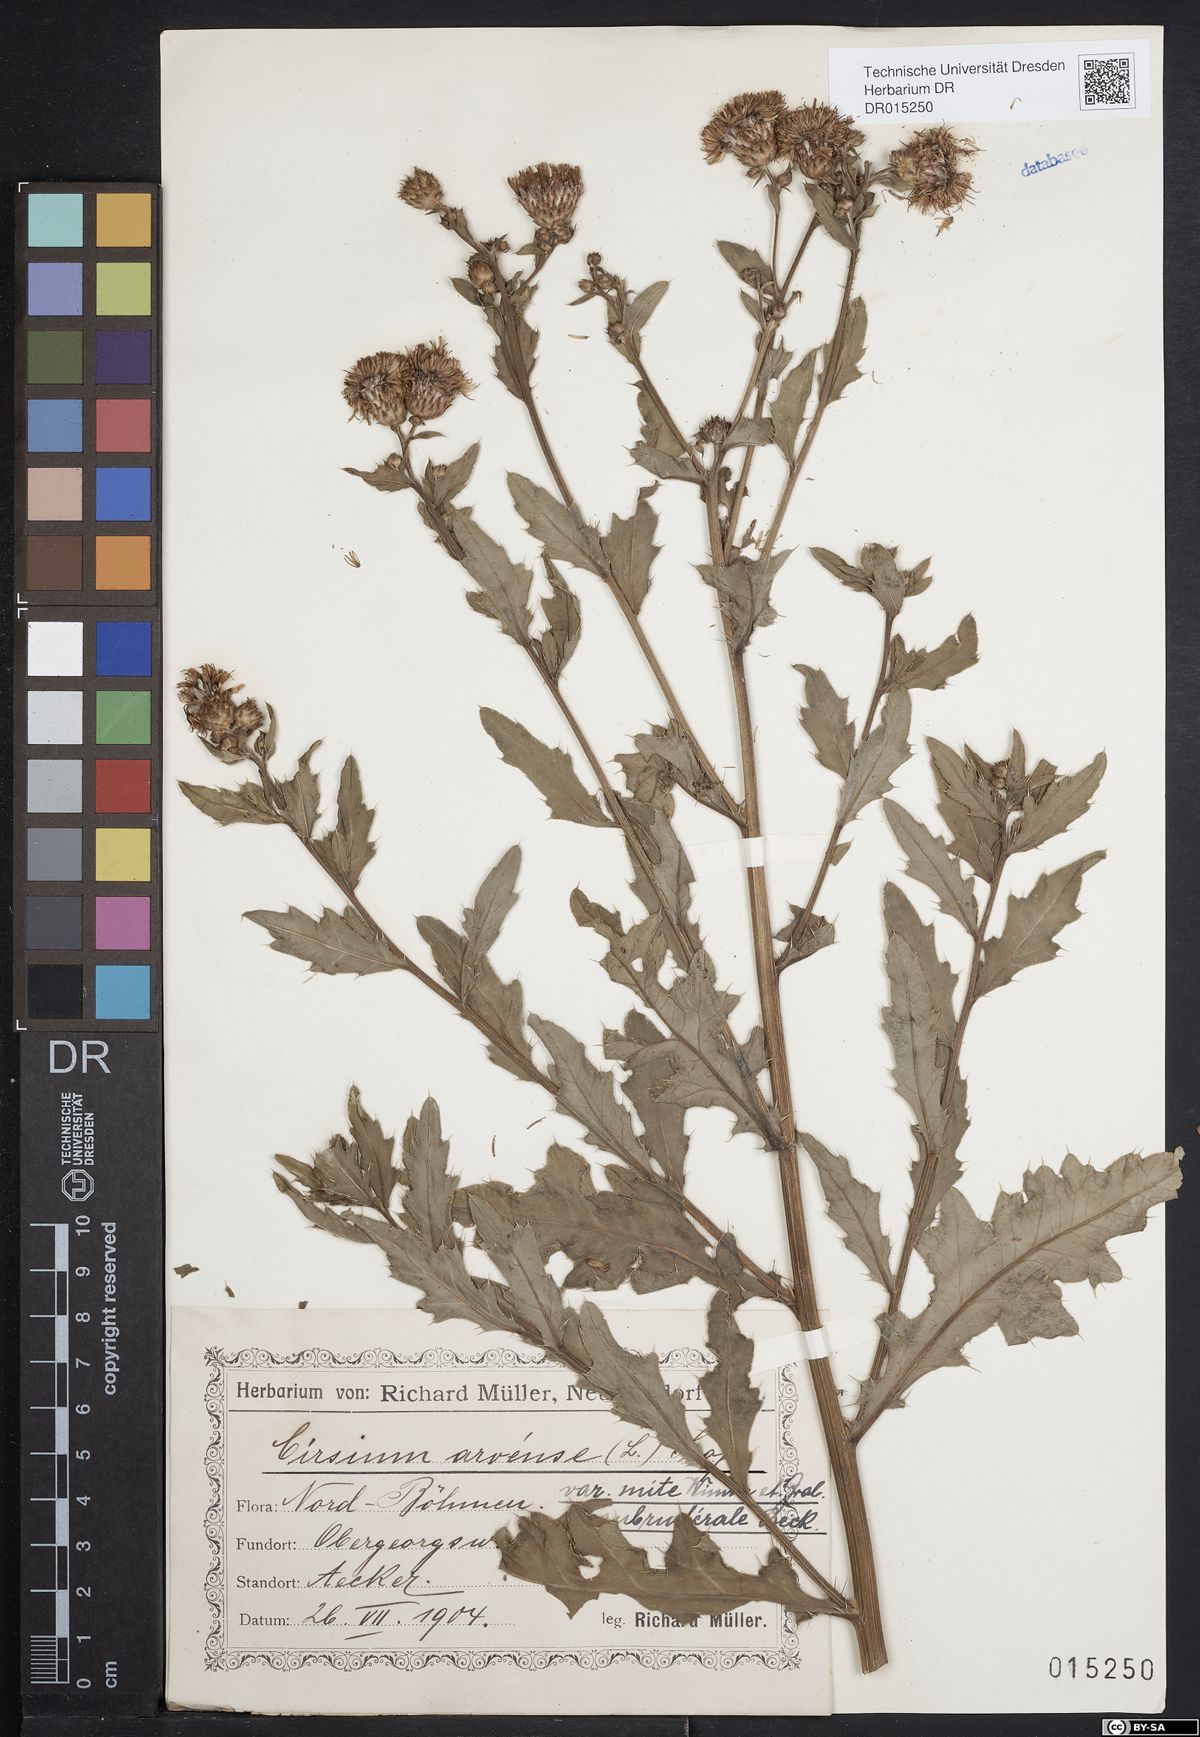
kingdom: Plantae
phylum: Tracheophyta
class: Magnoliopsida
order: Asterales
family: Asteraceae
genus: Cirsium
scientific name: Cirsium arvense
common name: Creeping thistle
